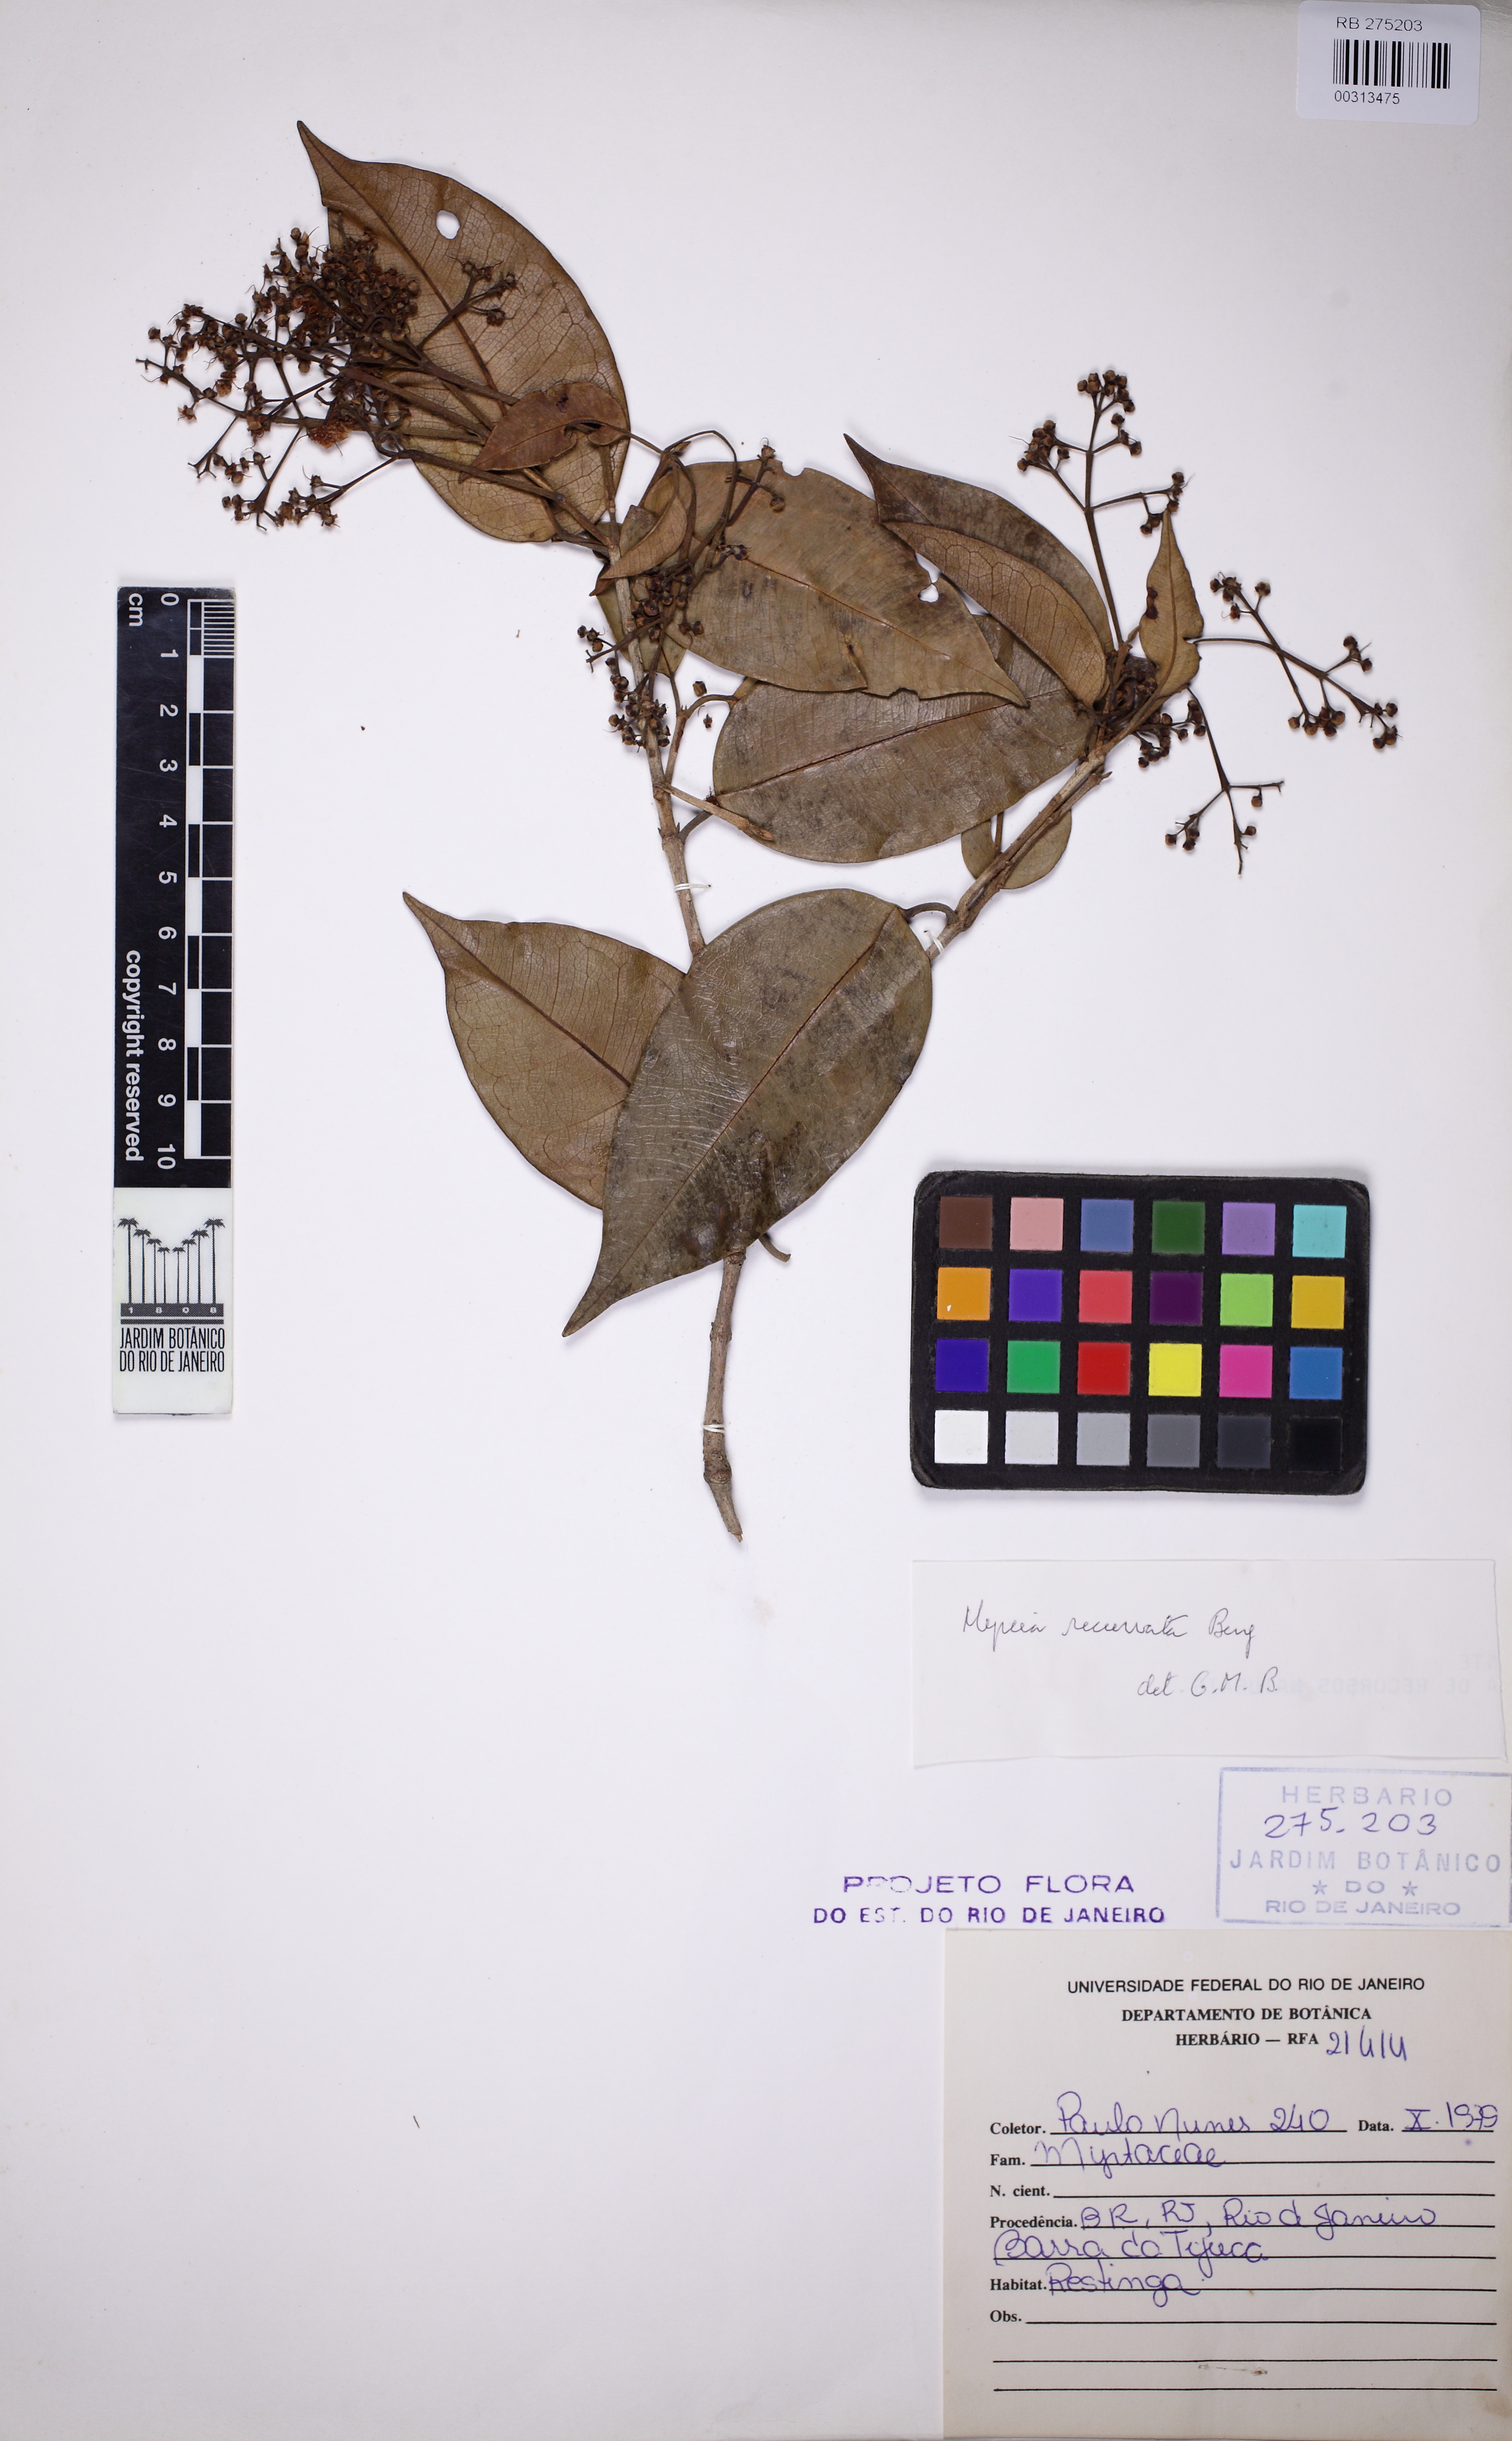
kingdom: Plantae
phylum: Tracheophyta
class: Magnoliopsida
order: Myrtales
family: Myrtaceae
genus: Myrcia
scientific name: Myrcia recurvata
